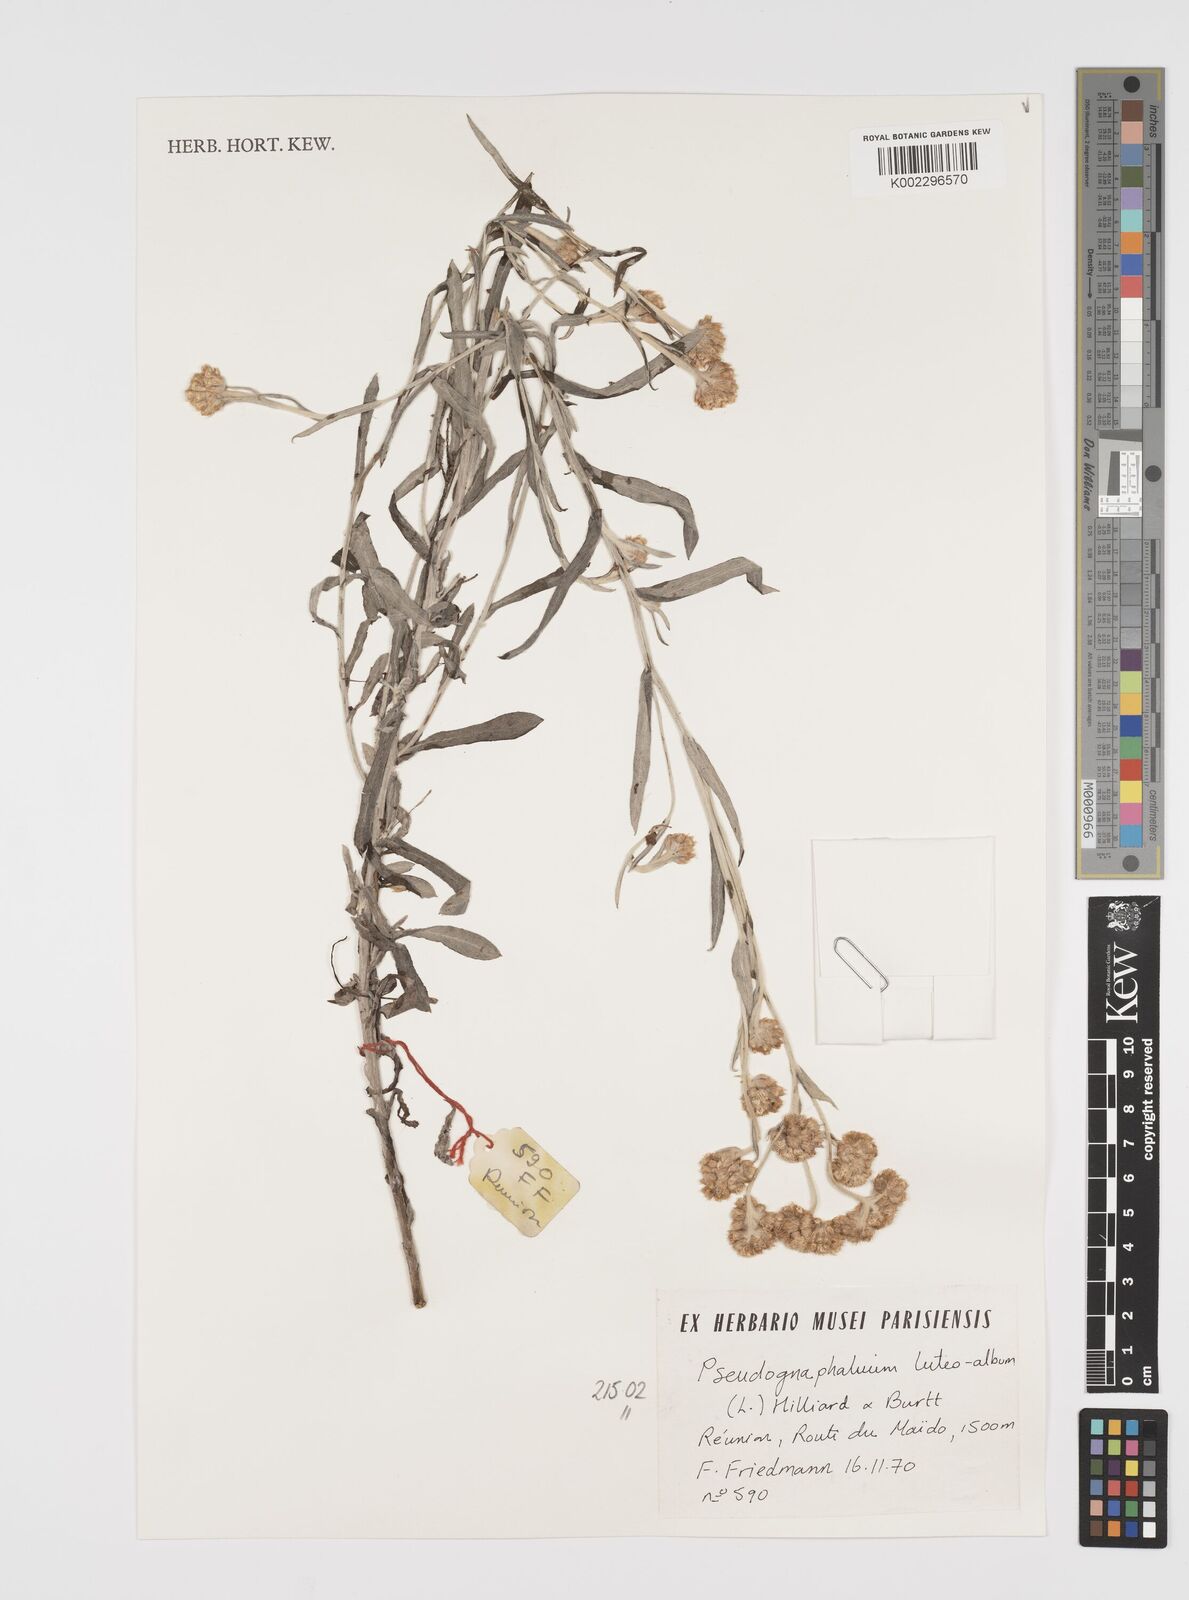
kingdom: Plantae
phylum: Tracheophyta
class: Magnoliopsida
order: Asterales
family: Asteraceae
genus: Helichrysum
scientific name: Helichrysum luteoalbum
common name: Daisy
